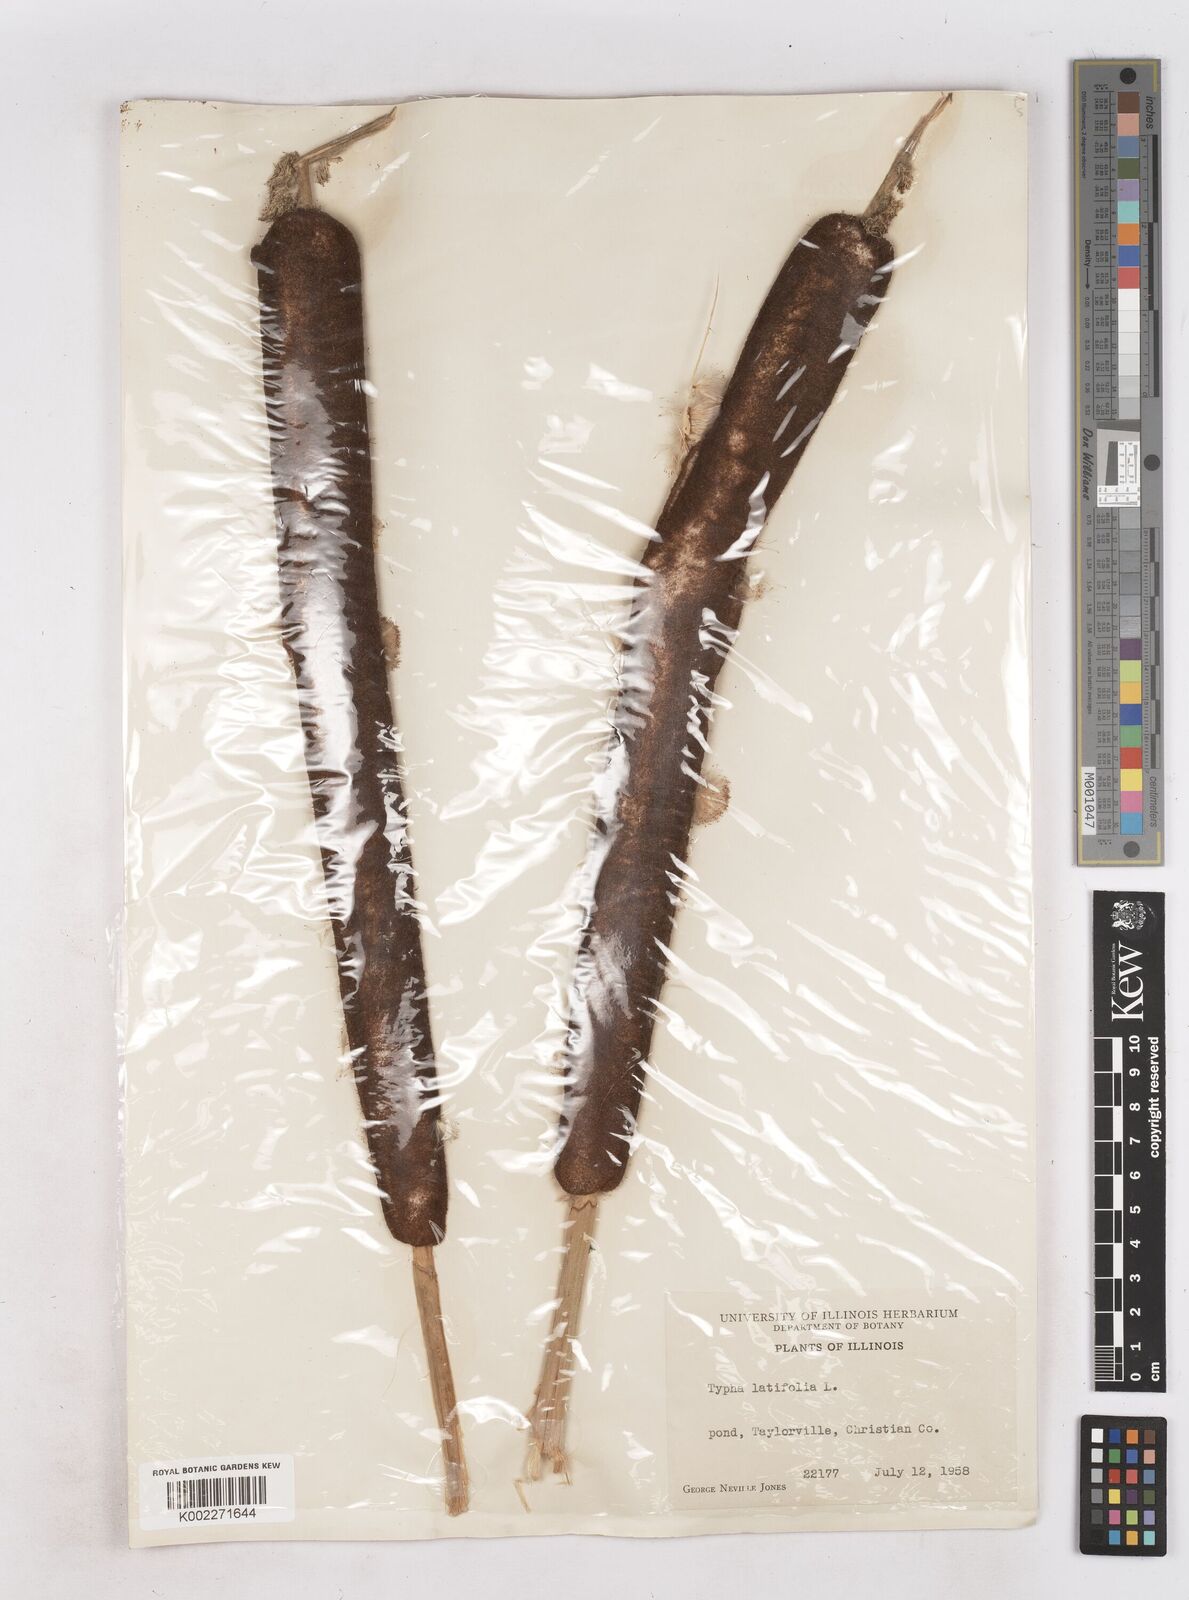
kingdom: Plantae
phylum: Tracheophyta
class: Liliopsida
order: Poales
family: Typhaceae
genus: Typha
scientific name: Typha latifolia
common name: Broadleaf cattail
